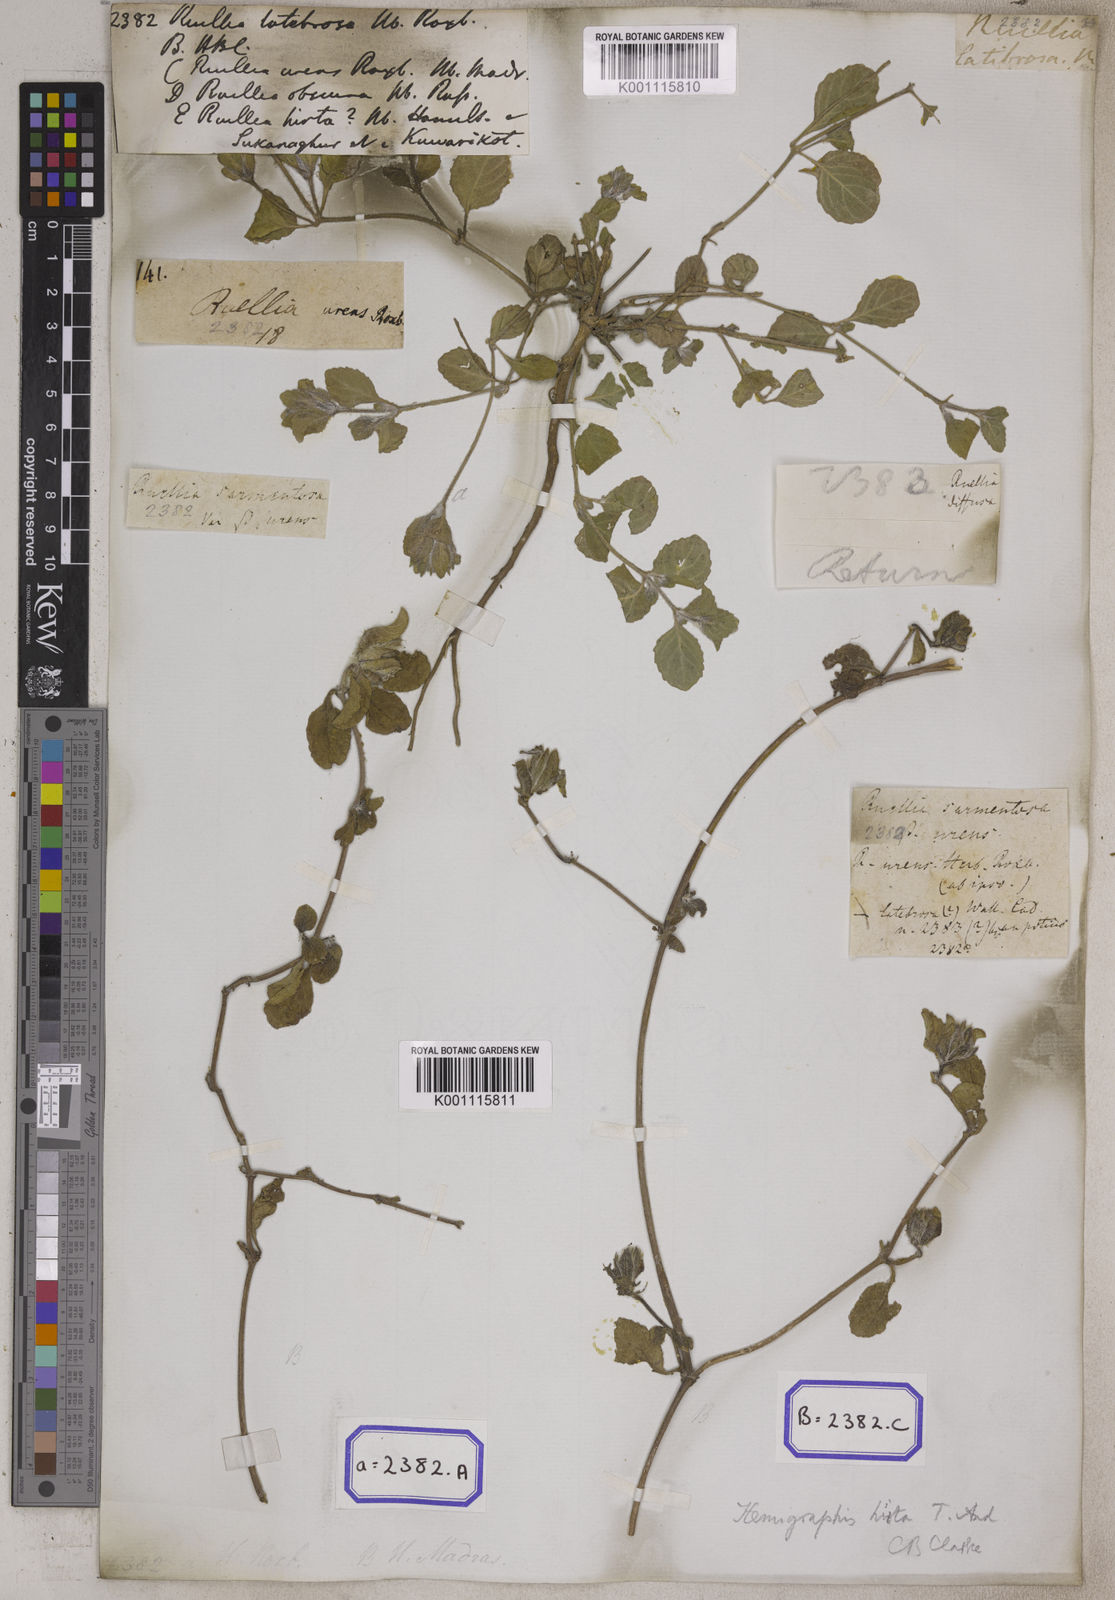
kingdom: Plantae
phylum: Tracheophyta
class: Magnoliopsida
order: Lamiales
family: Acanthaceae
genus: Strobilanthes
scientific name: Strobilanthes hirta
